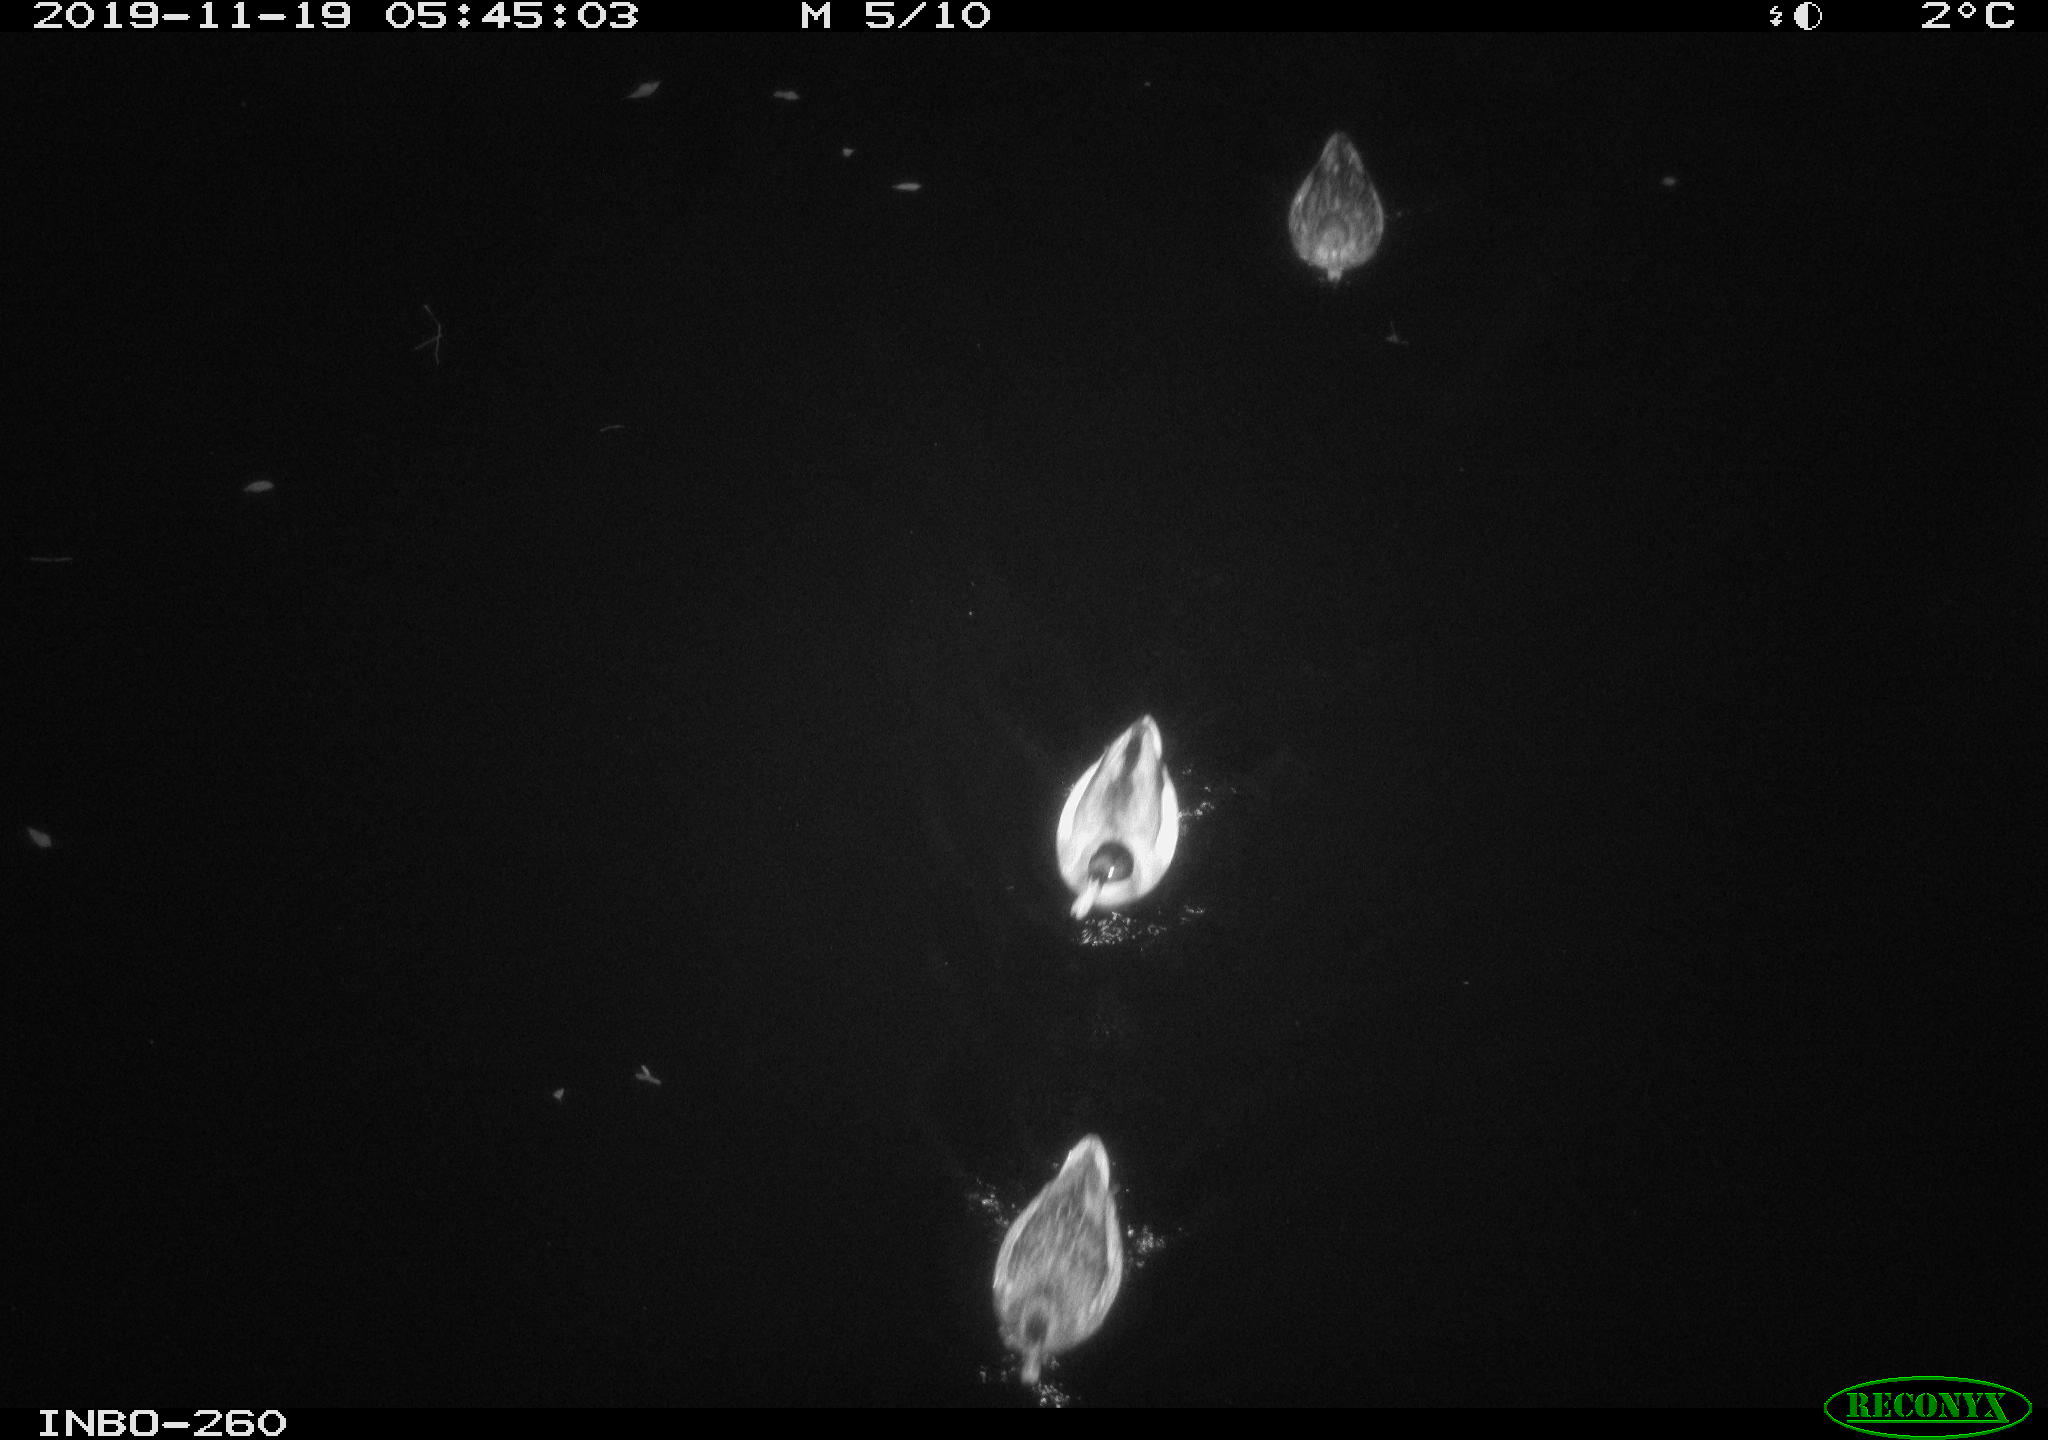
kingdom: Animalia
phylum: Chordata
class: Aves
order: Anseriformes
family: Anatidae
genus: Anas
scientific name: Anas platyrhynchos
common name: Mallard
